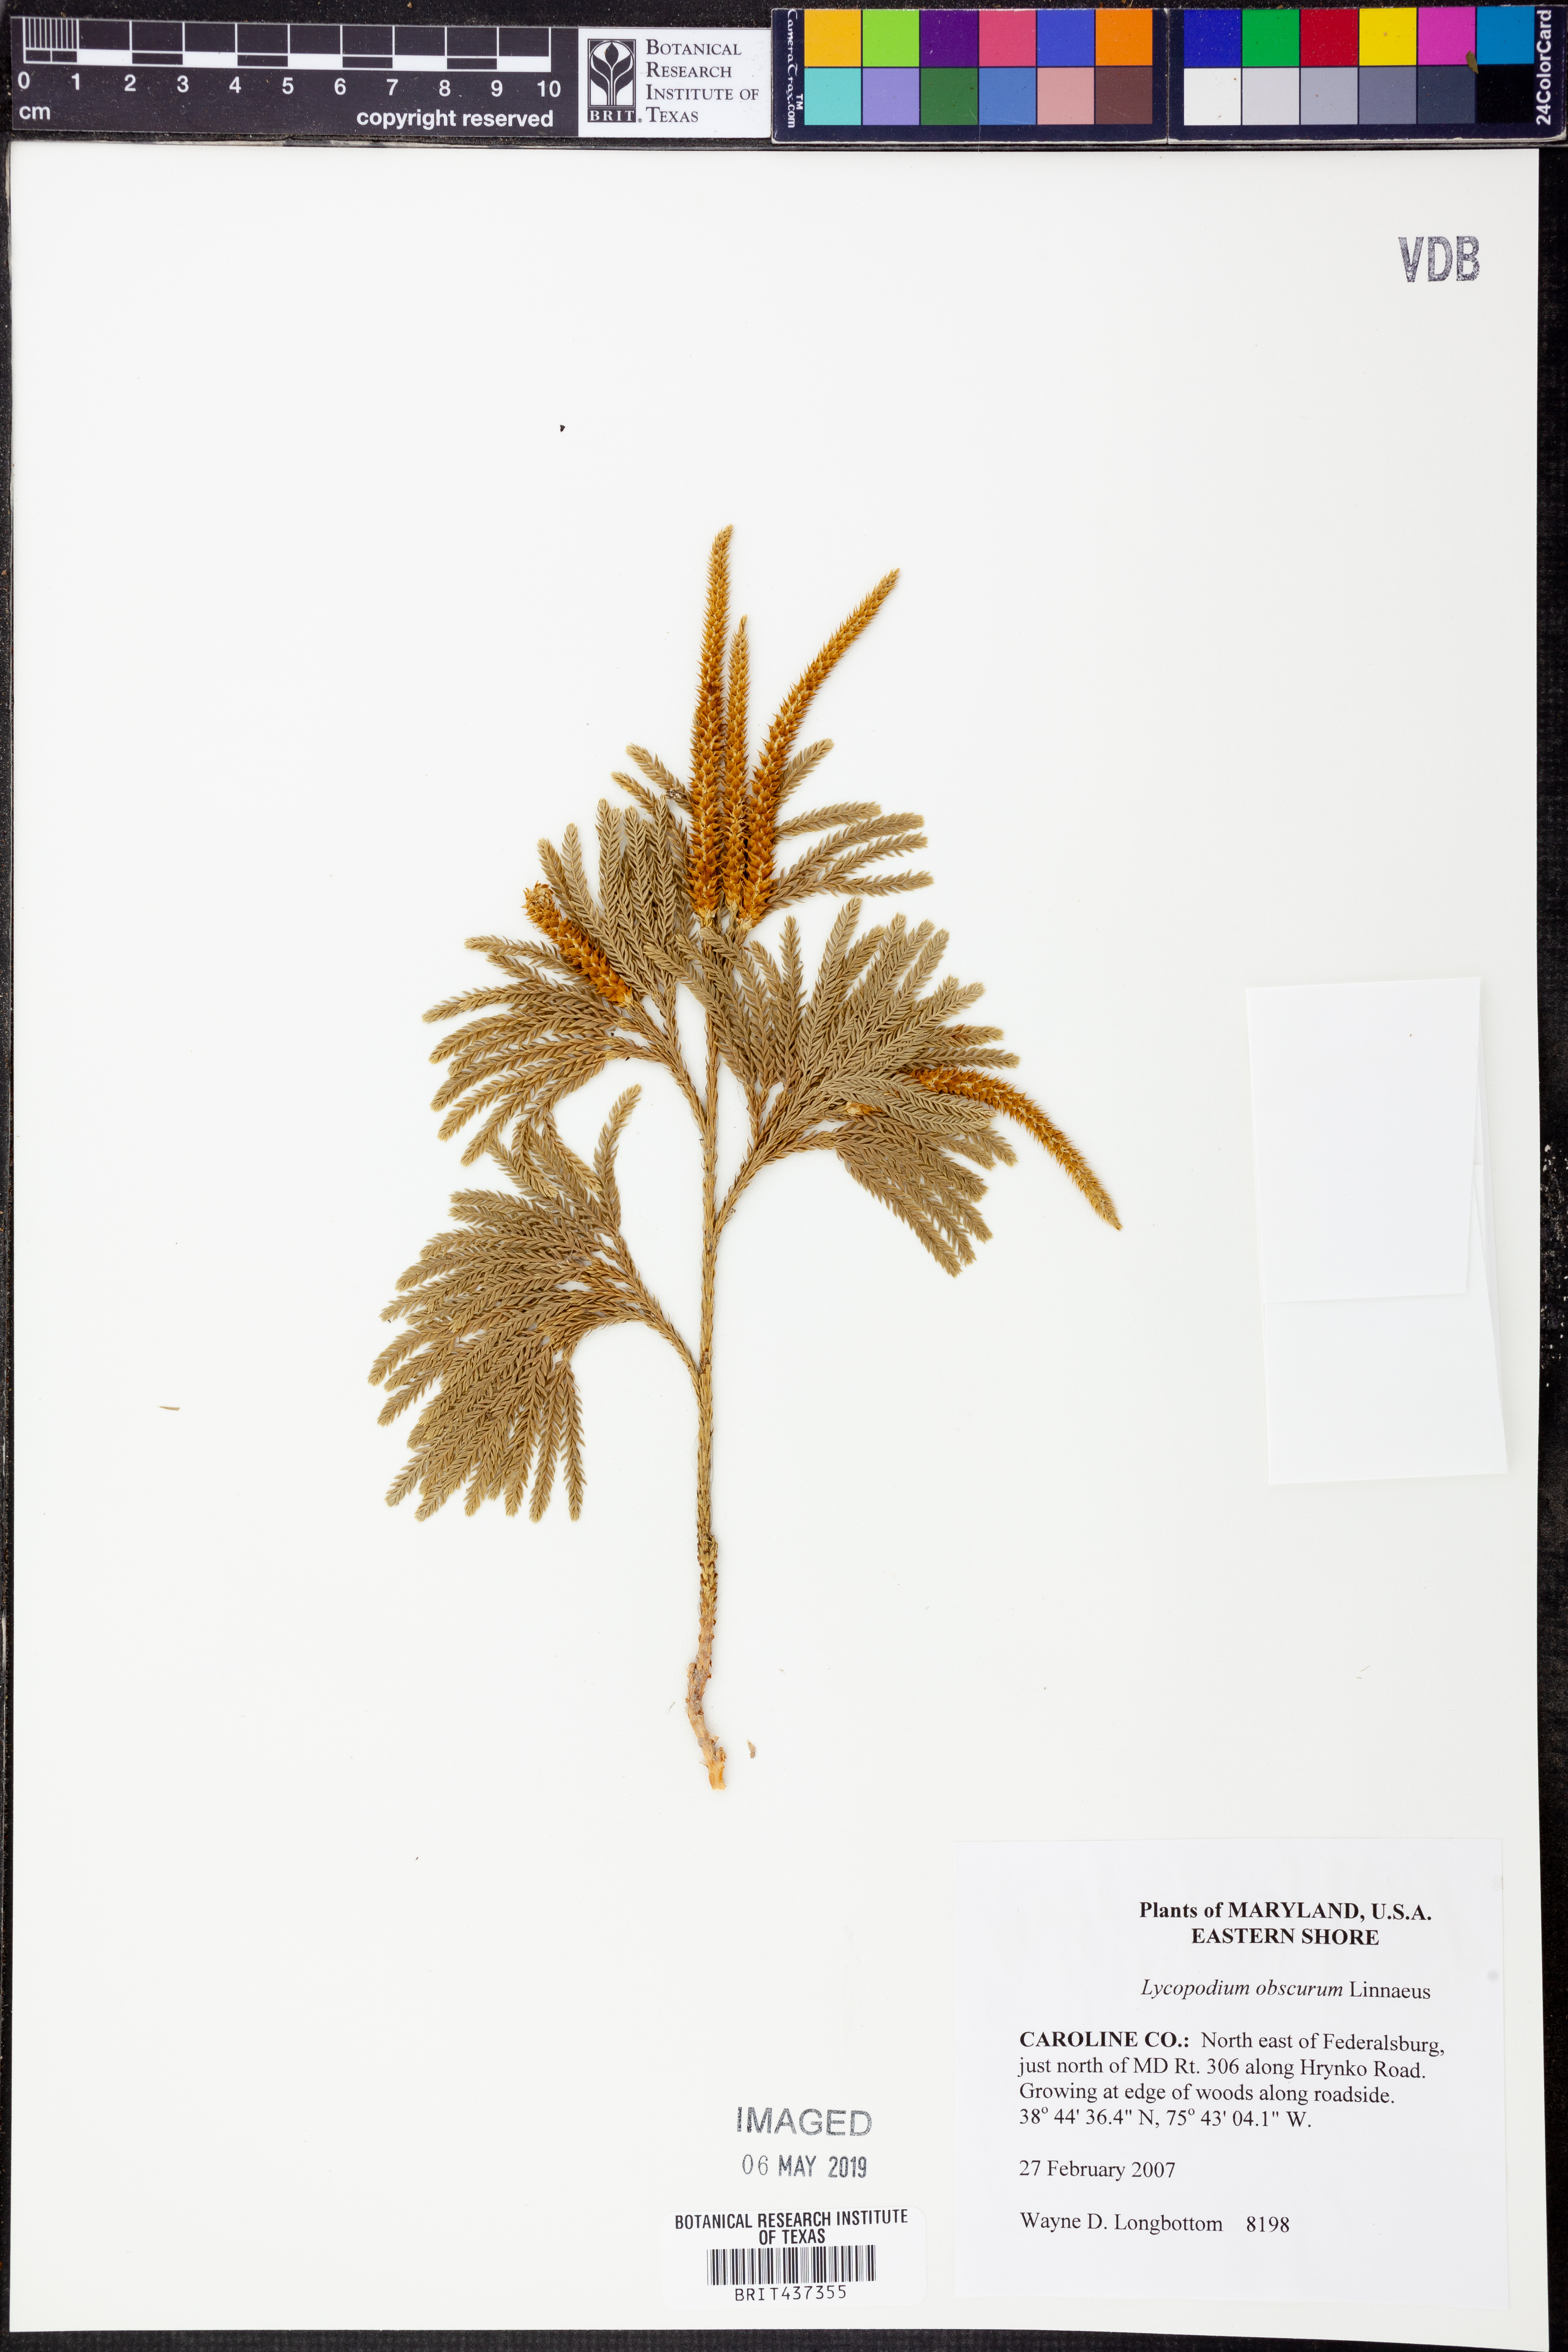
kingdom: Plantae
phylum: Tracheophyta
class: Lycopodiopsida
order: Lycopodiales
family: Lycopodiaceae
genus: Dendrolycopodium
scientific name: Dendrolycopodium obscurum
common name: Common ground-pine
